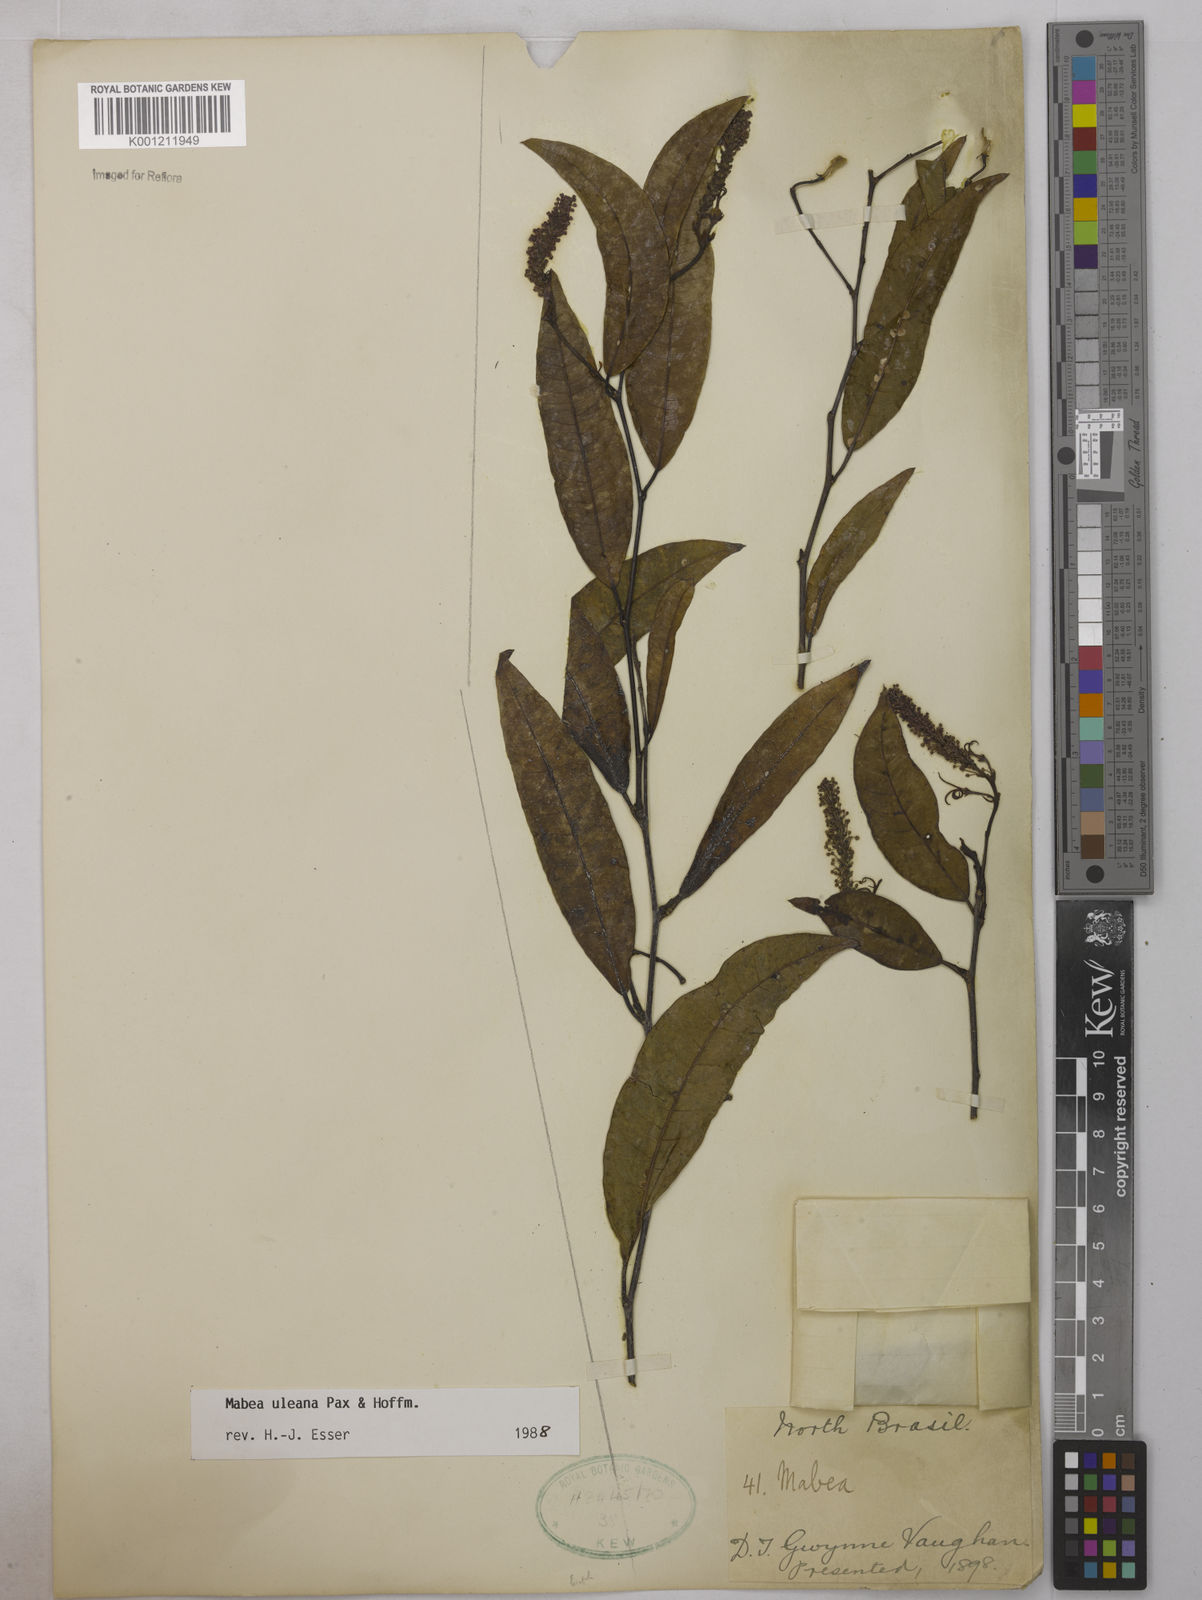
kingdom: Plantae
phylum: Tracheophyta
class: Magnoliopsida
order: Malpighiales
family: Euphorbiaceae
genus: Mabea
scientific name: Mabea uleana
